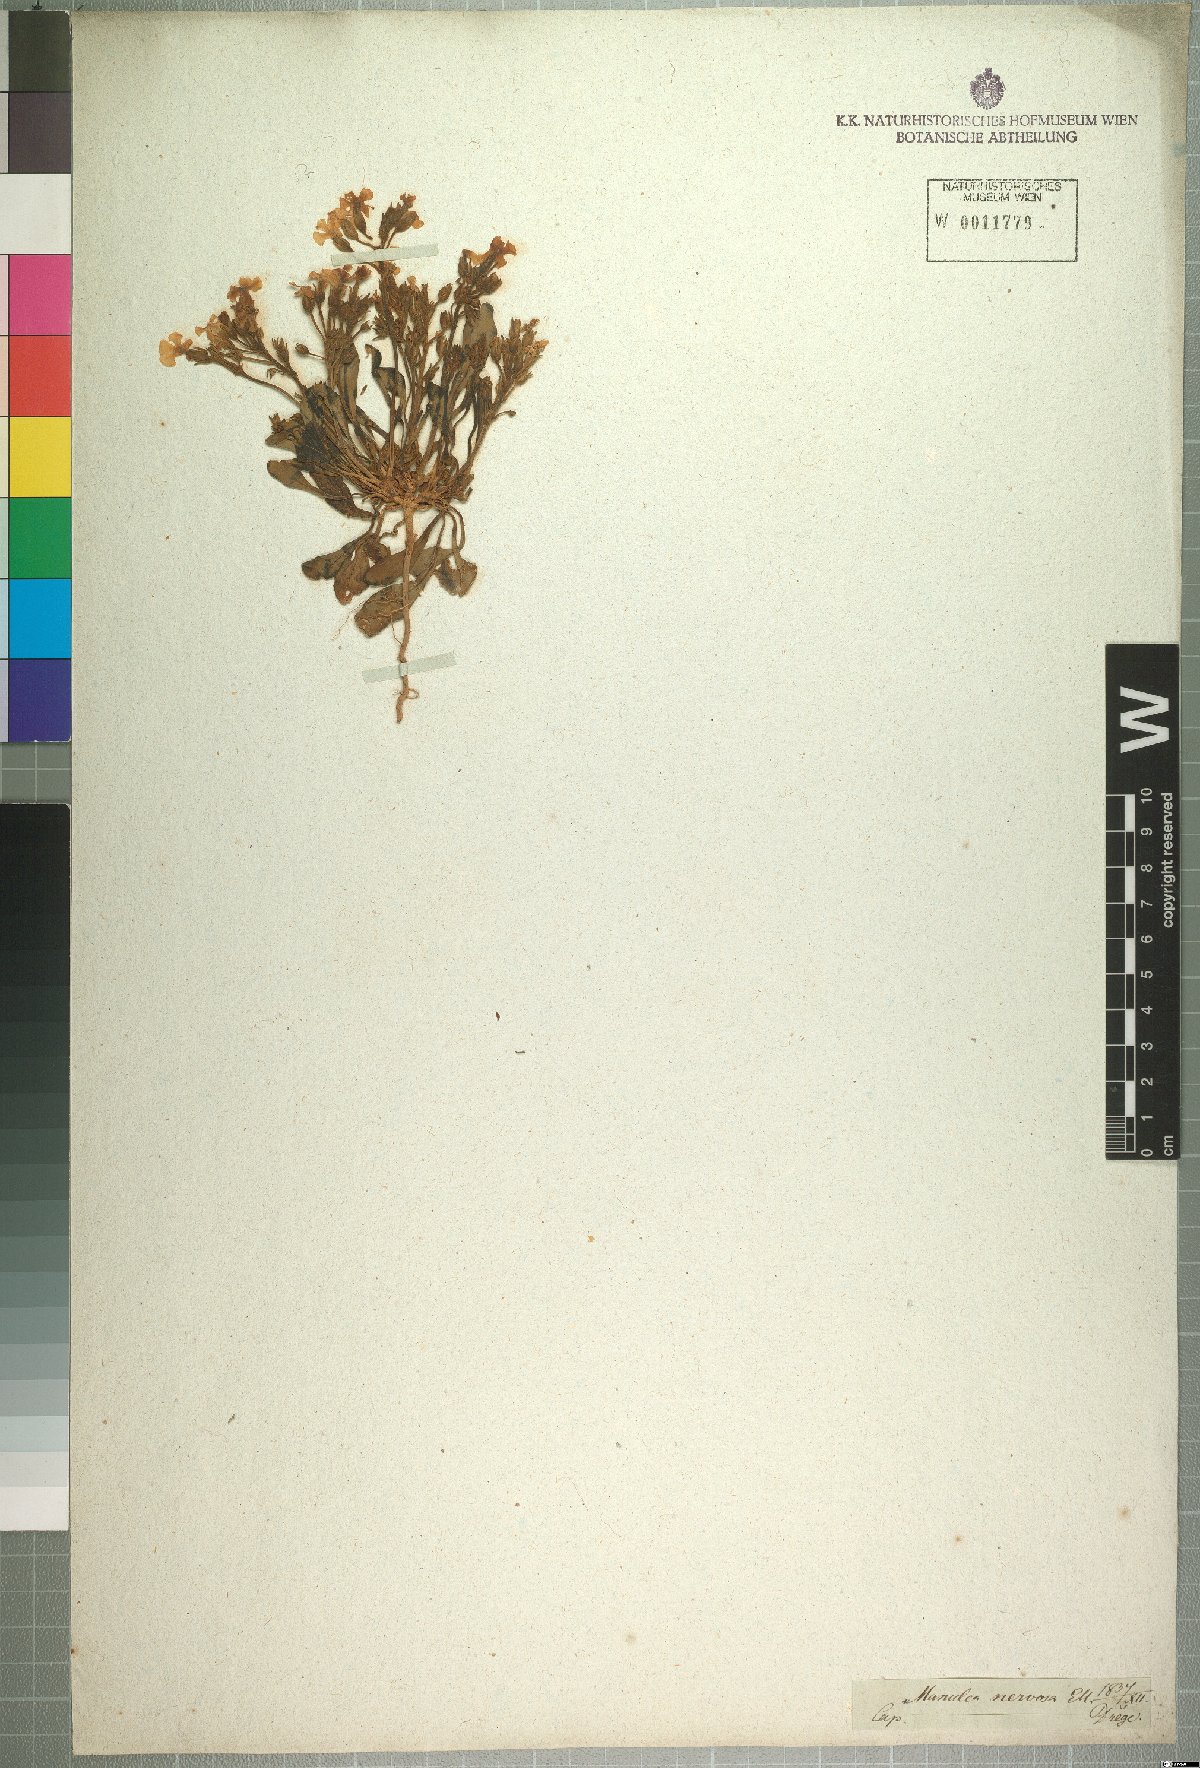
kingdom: Plantae
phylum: Tracheophyta
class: Magnoliopsida
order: Lamiales
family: Scrophulariaceae
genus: Manulea
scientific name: Manulea nervosa
